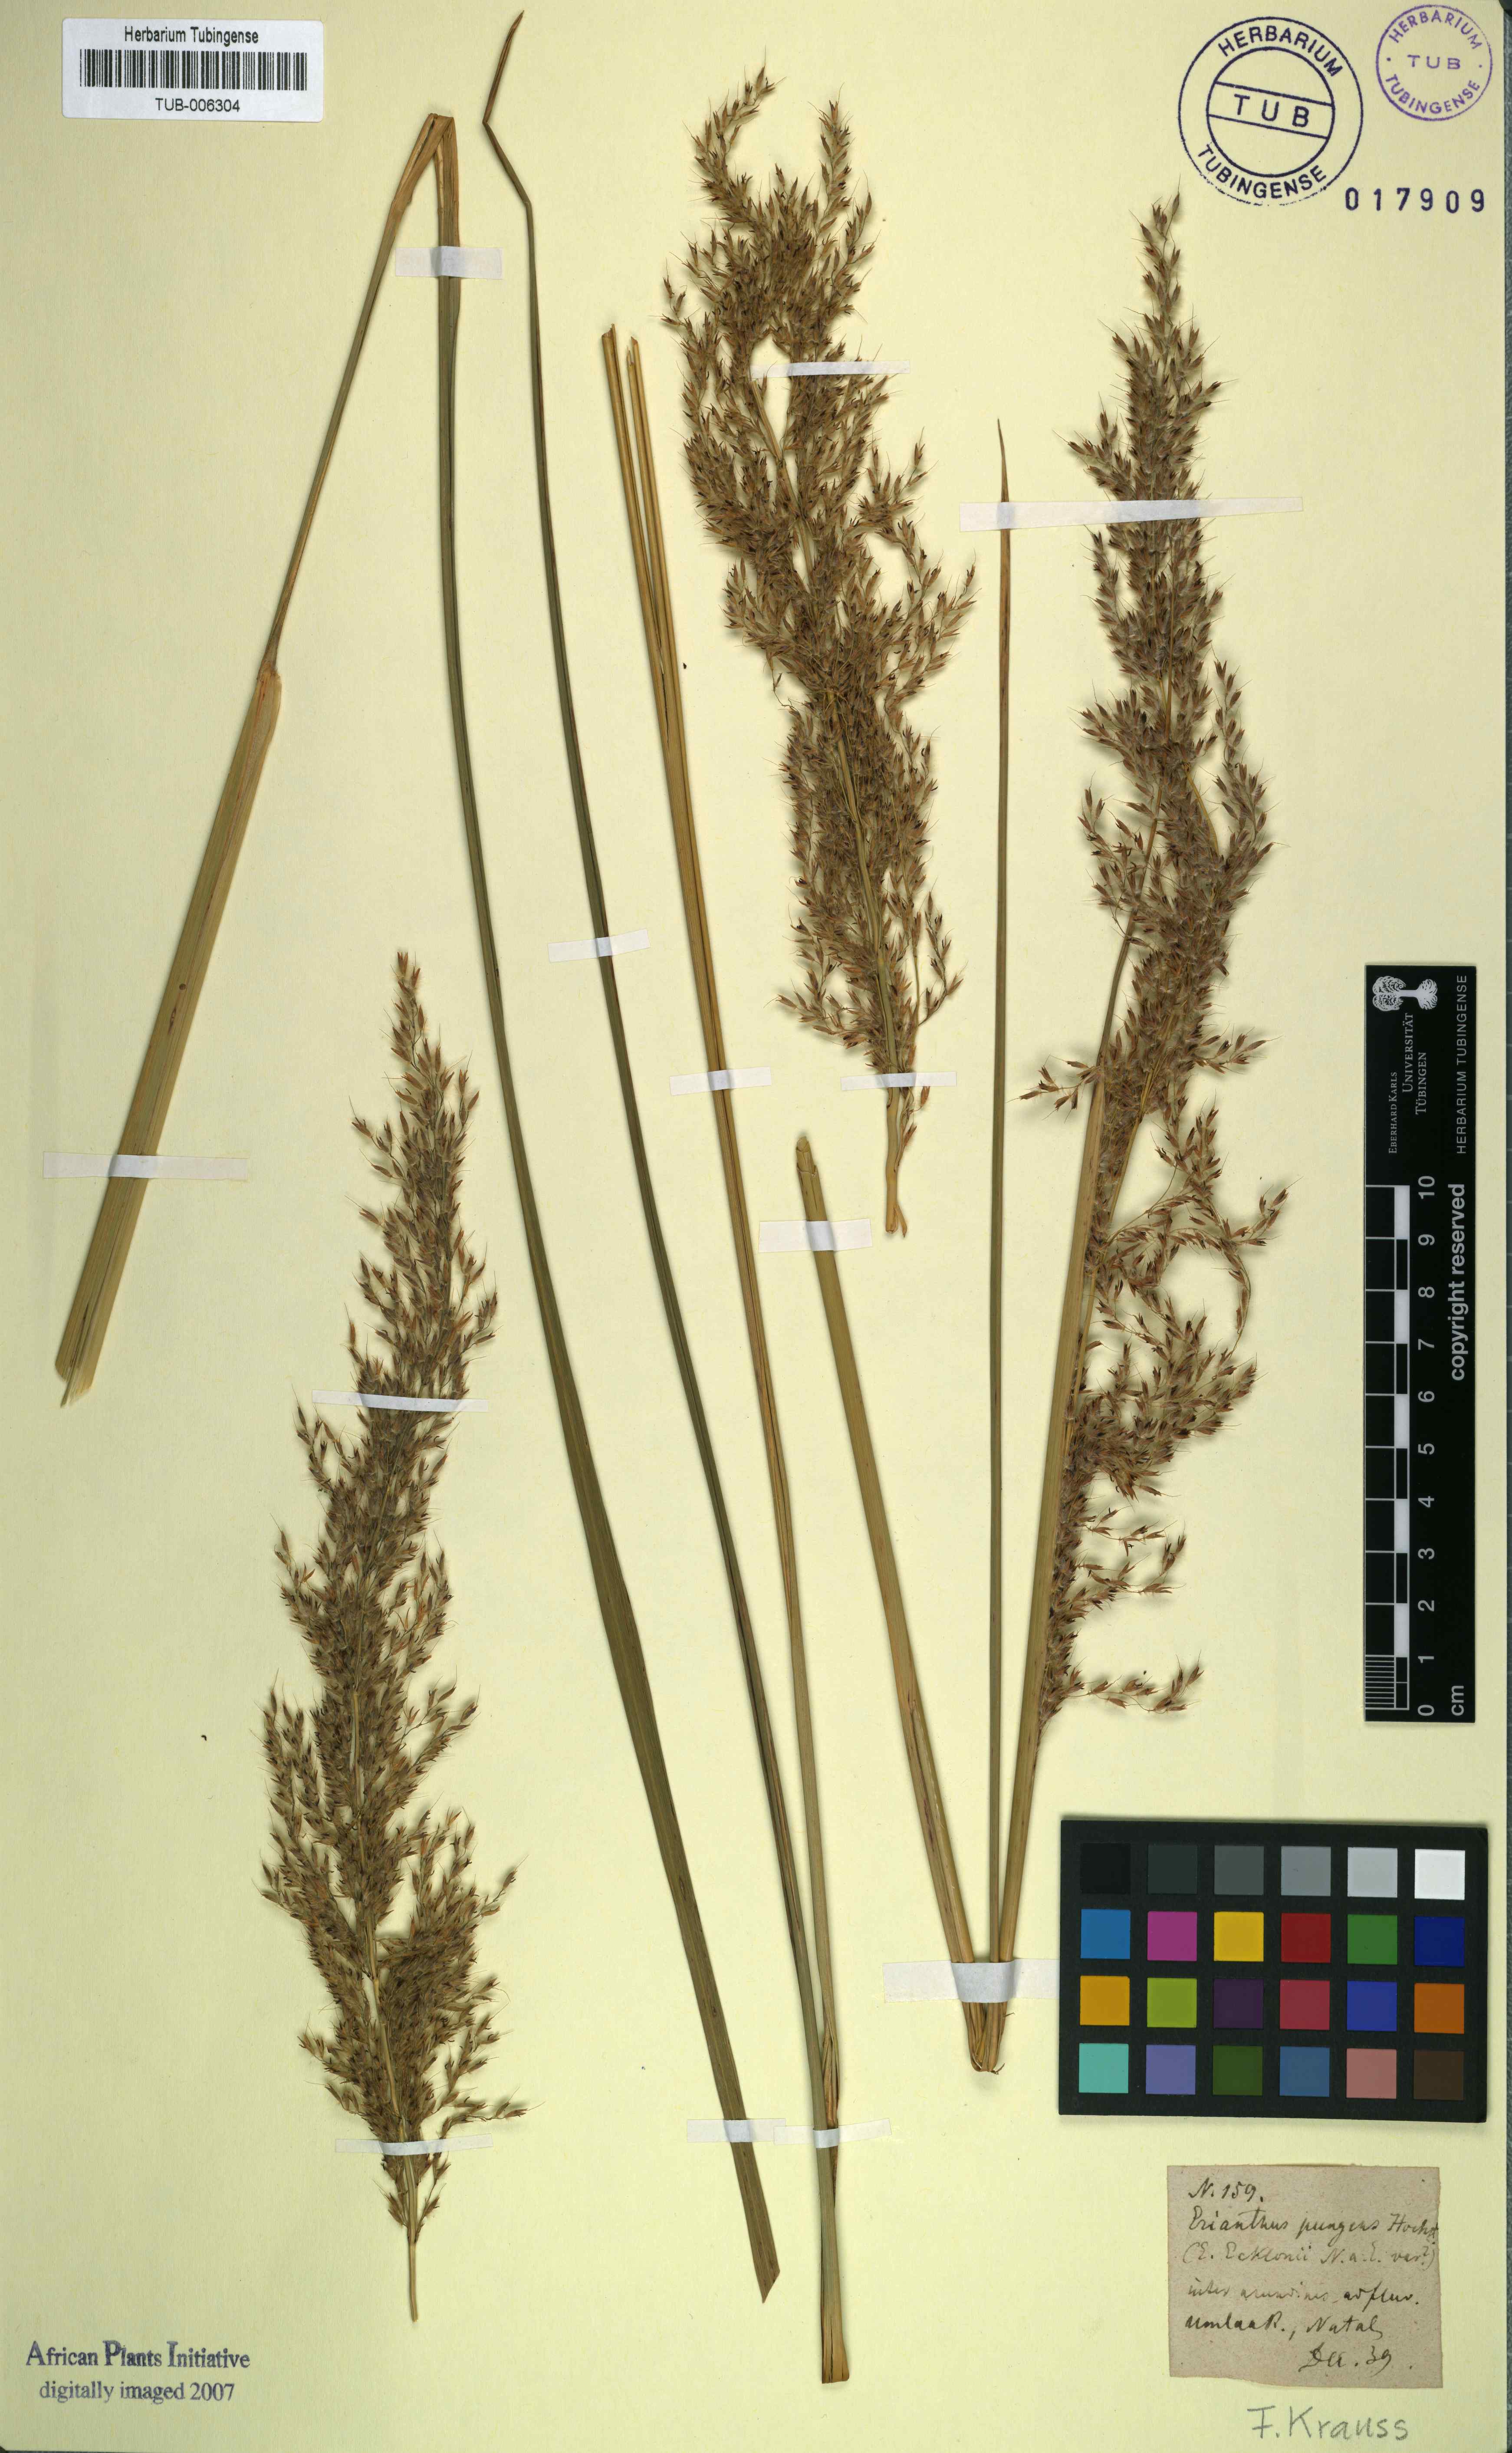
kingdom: Plantae
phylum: Tracheophyta
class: Liliopsida
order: Poales
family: Poaceae
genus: Miscanthus
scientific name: Miscanthus ecklonii
